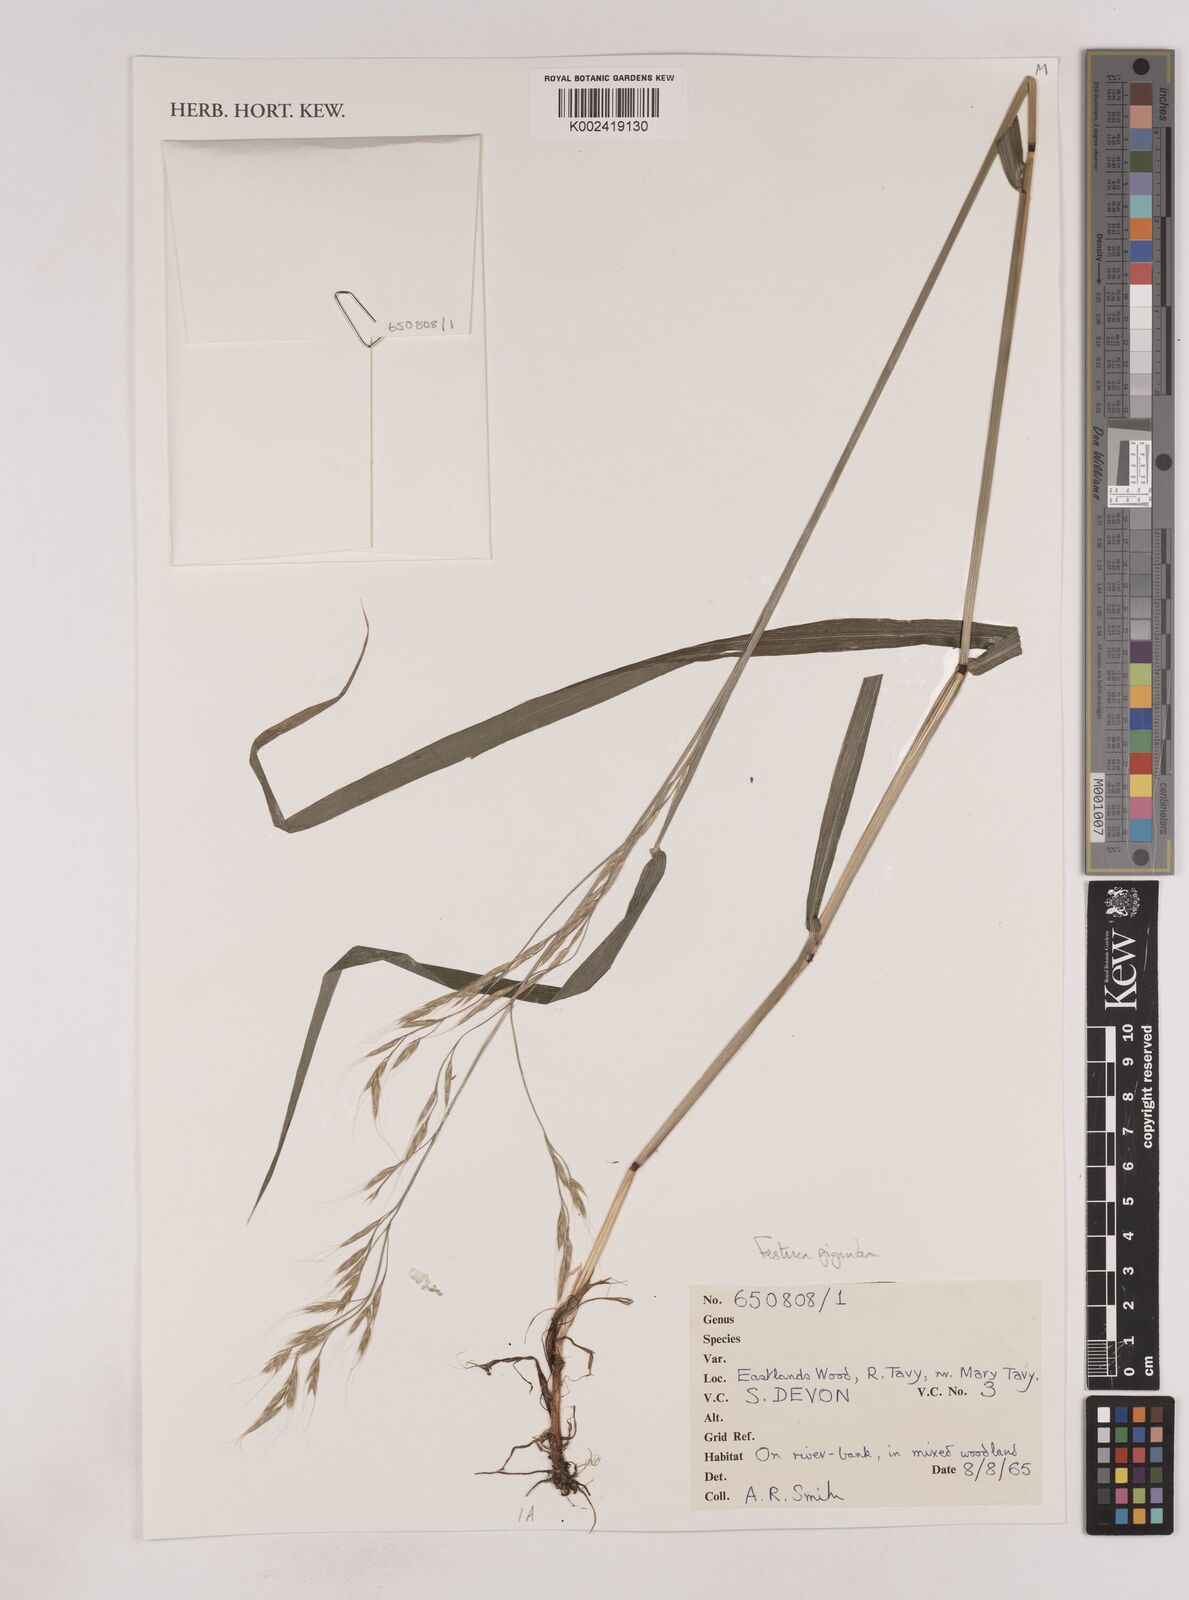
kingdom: Plantae
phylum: Tracheophyta
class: Liliopsida
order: Poales
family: Poaceae
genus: Lolium
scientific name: Lolium giganteum
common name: Giant fescue
